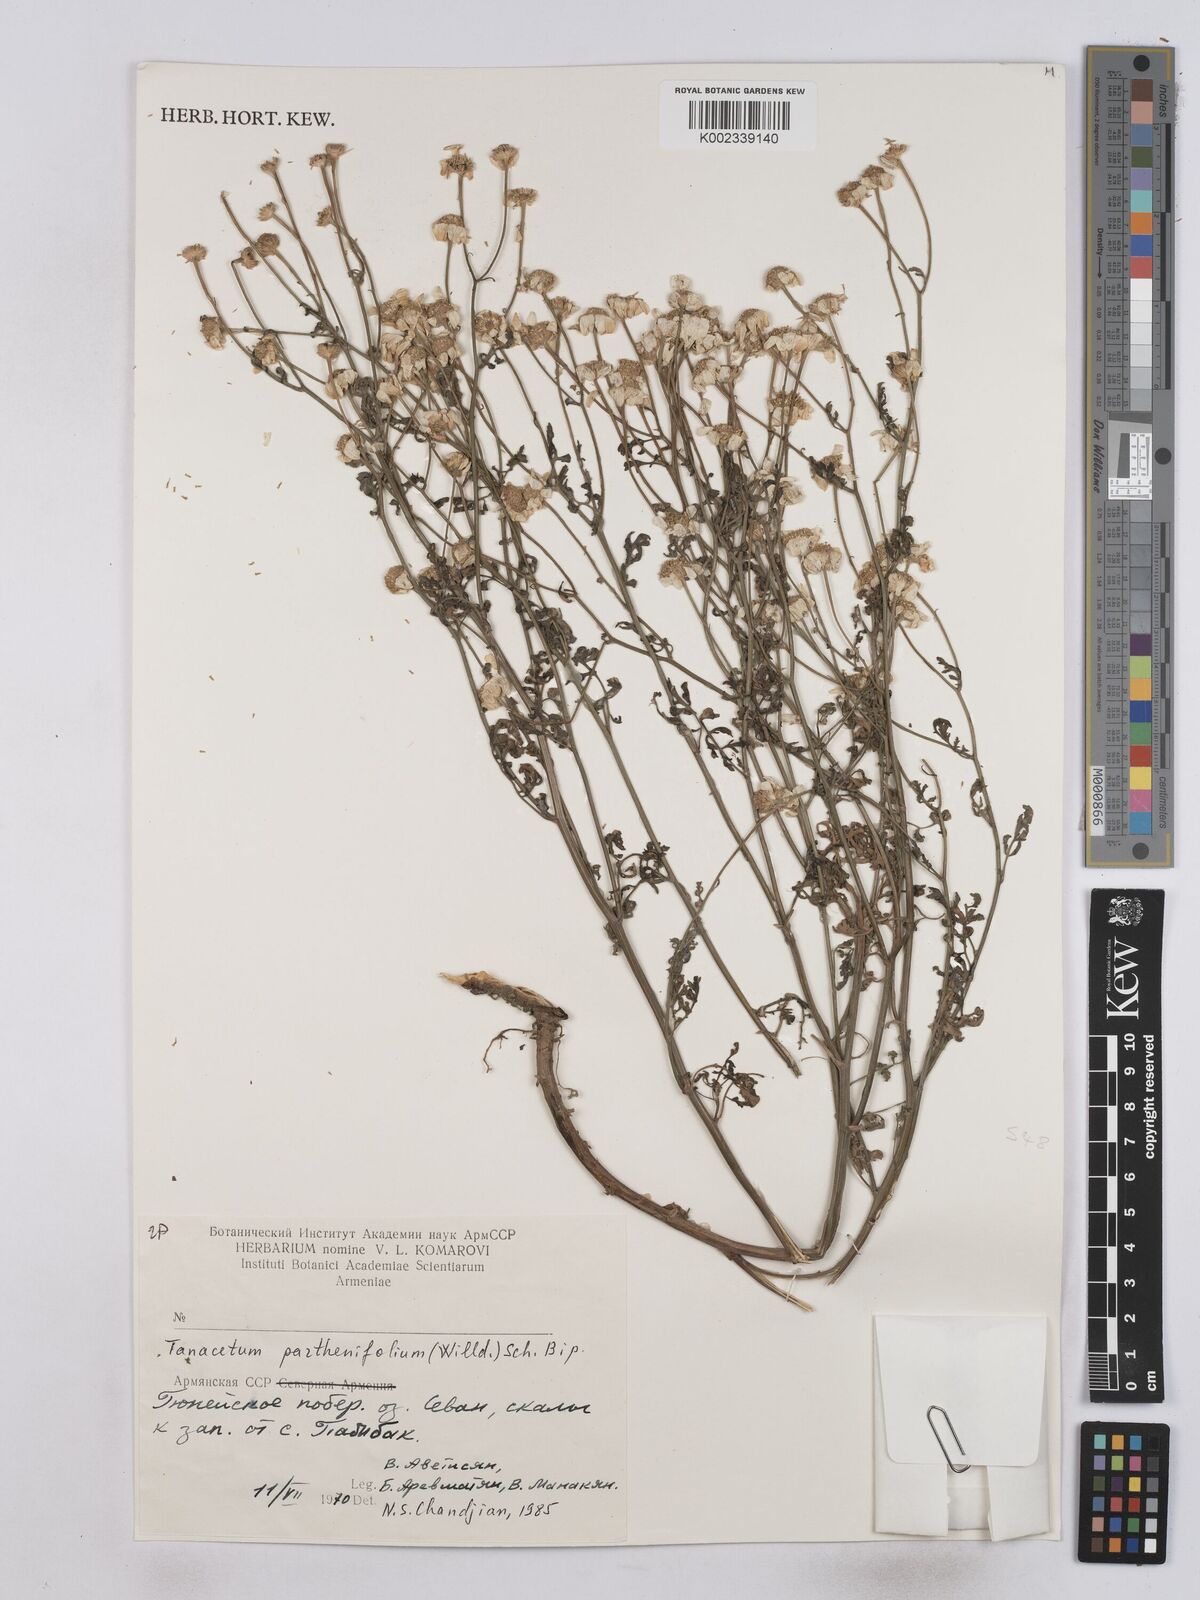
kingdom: Plantae
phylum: Tracheophyta
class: Magnoliopsida
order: Asterales
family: Asteraceae
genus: Tanacetum
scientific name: Tanacetum partheniifolium
